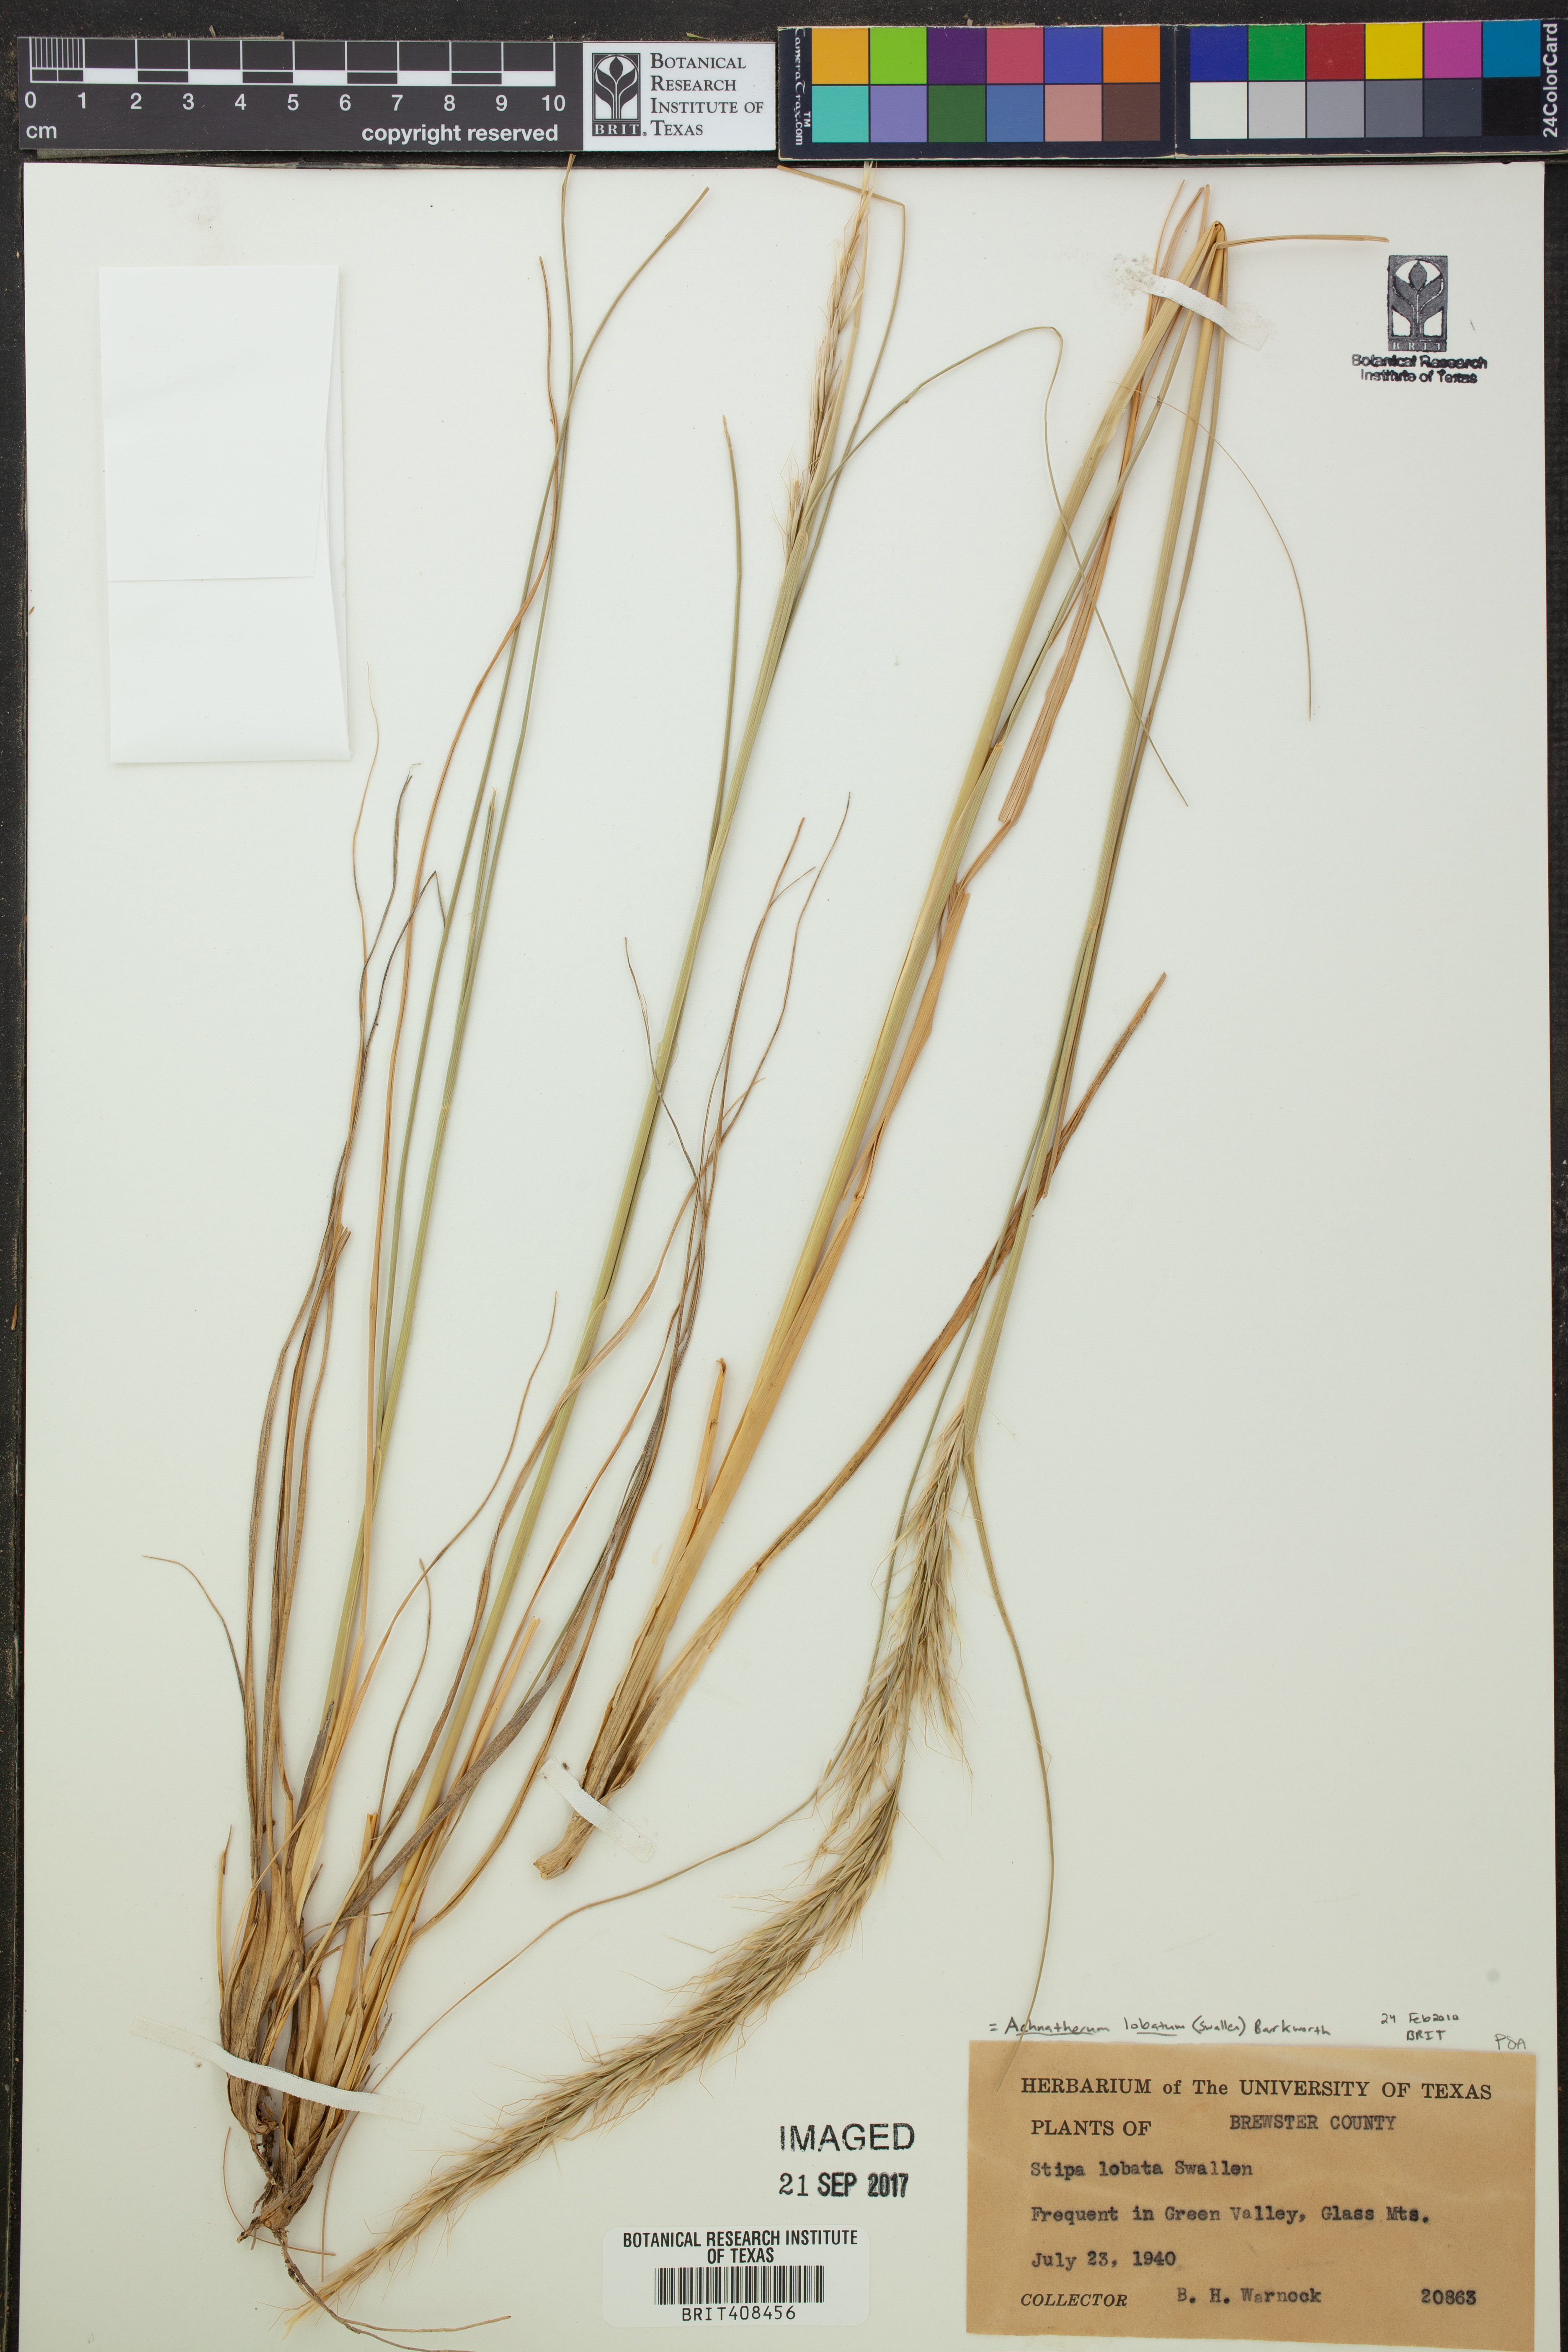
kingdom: Plantae
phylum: Tracheophyta
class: Liliopsida
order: Poales
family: Poaceae
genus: Eriocoma
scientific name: Eriocoma lobata
